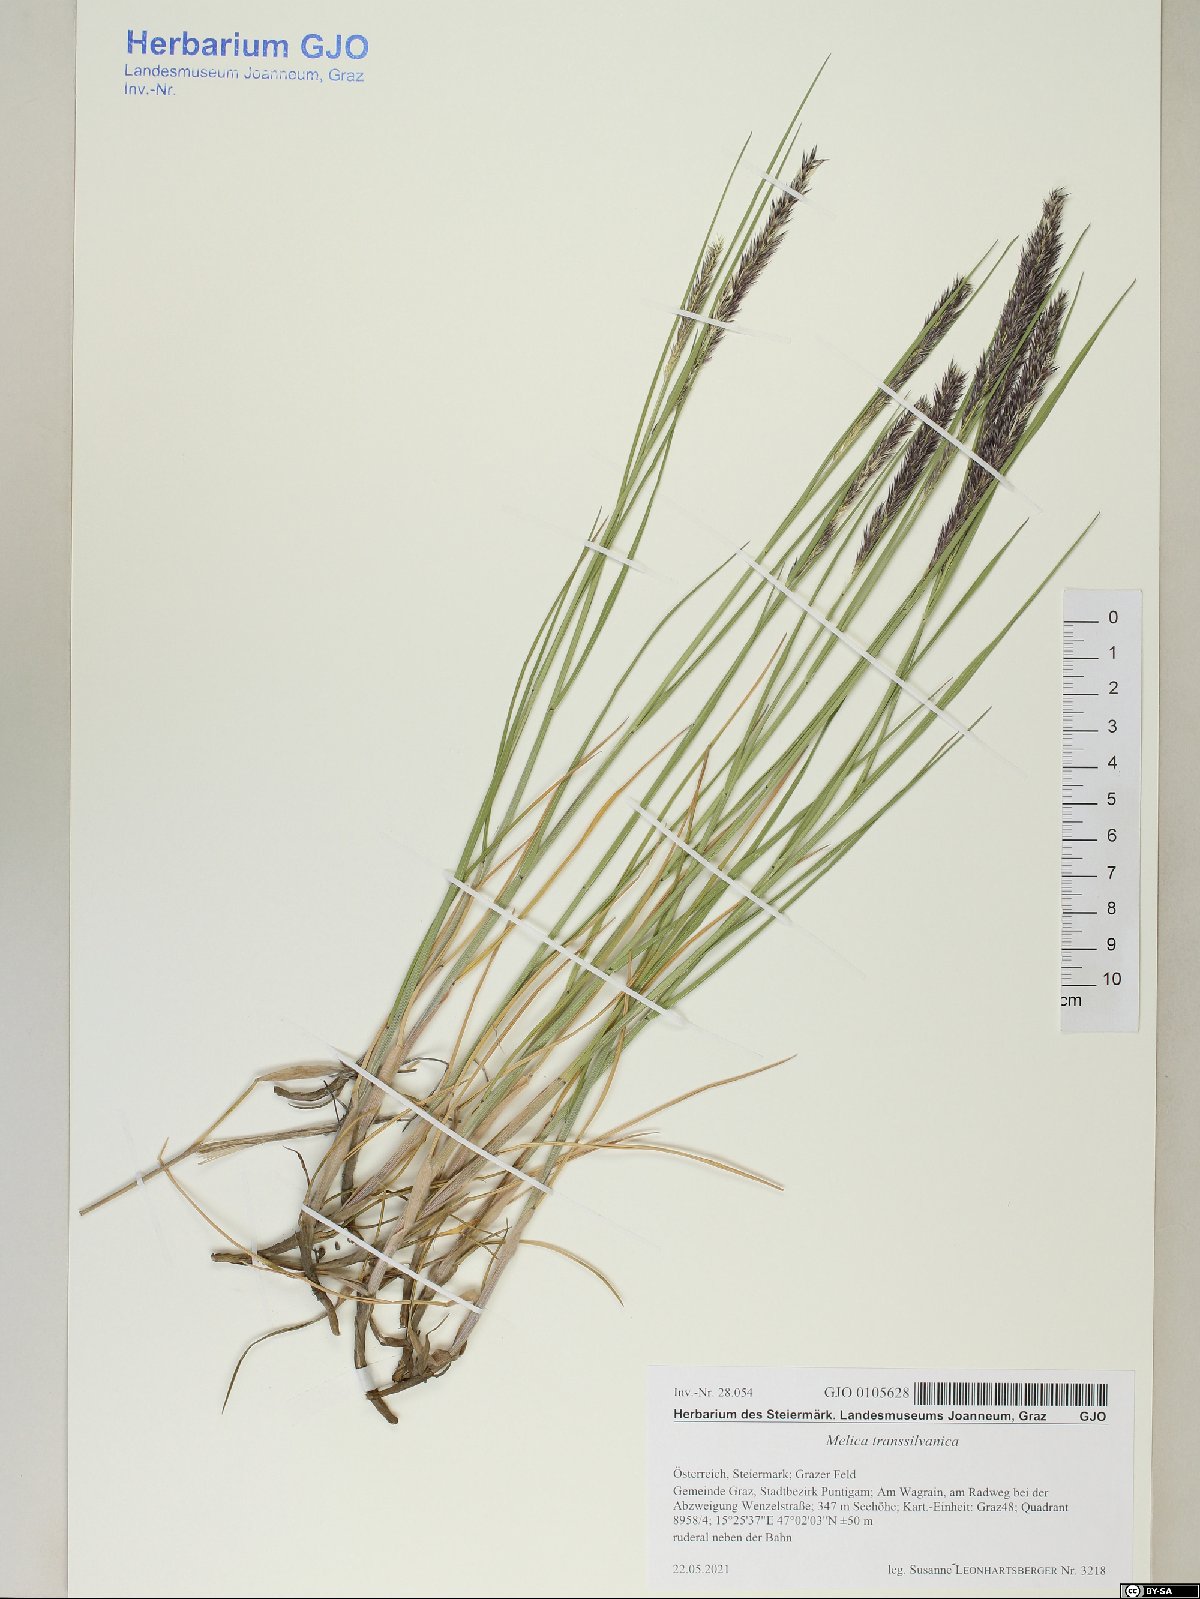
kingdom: Plantae
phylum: Tracheophyta
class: Liliopsida
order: Poales
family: Poaceae
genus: Melica
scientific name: Melica transsilvanica
